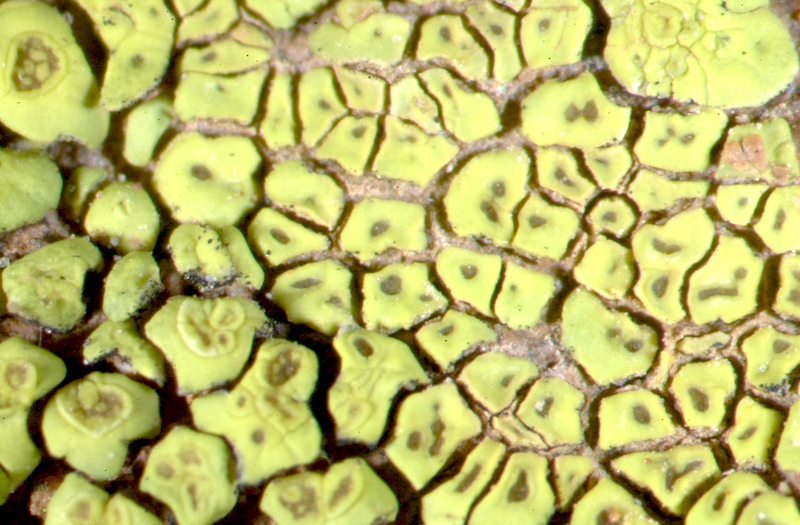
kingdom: Fungi
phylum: Ascomycota
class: Lecanoromycetes
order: Acarosporales
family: Acarosporaceae
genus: Acarospora
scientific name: Acarospora
